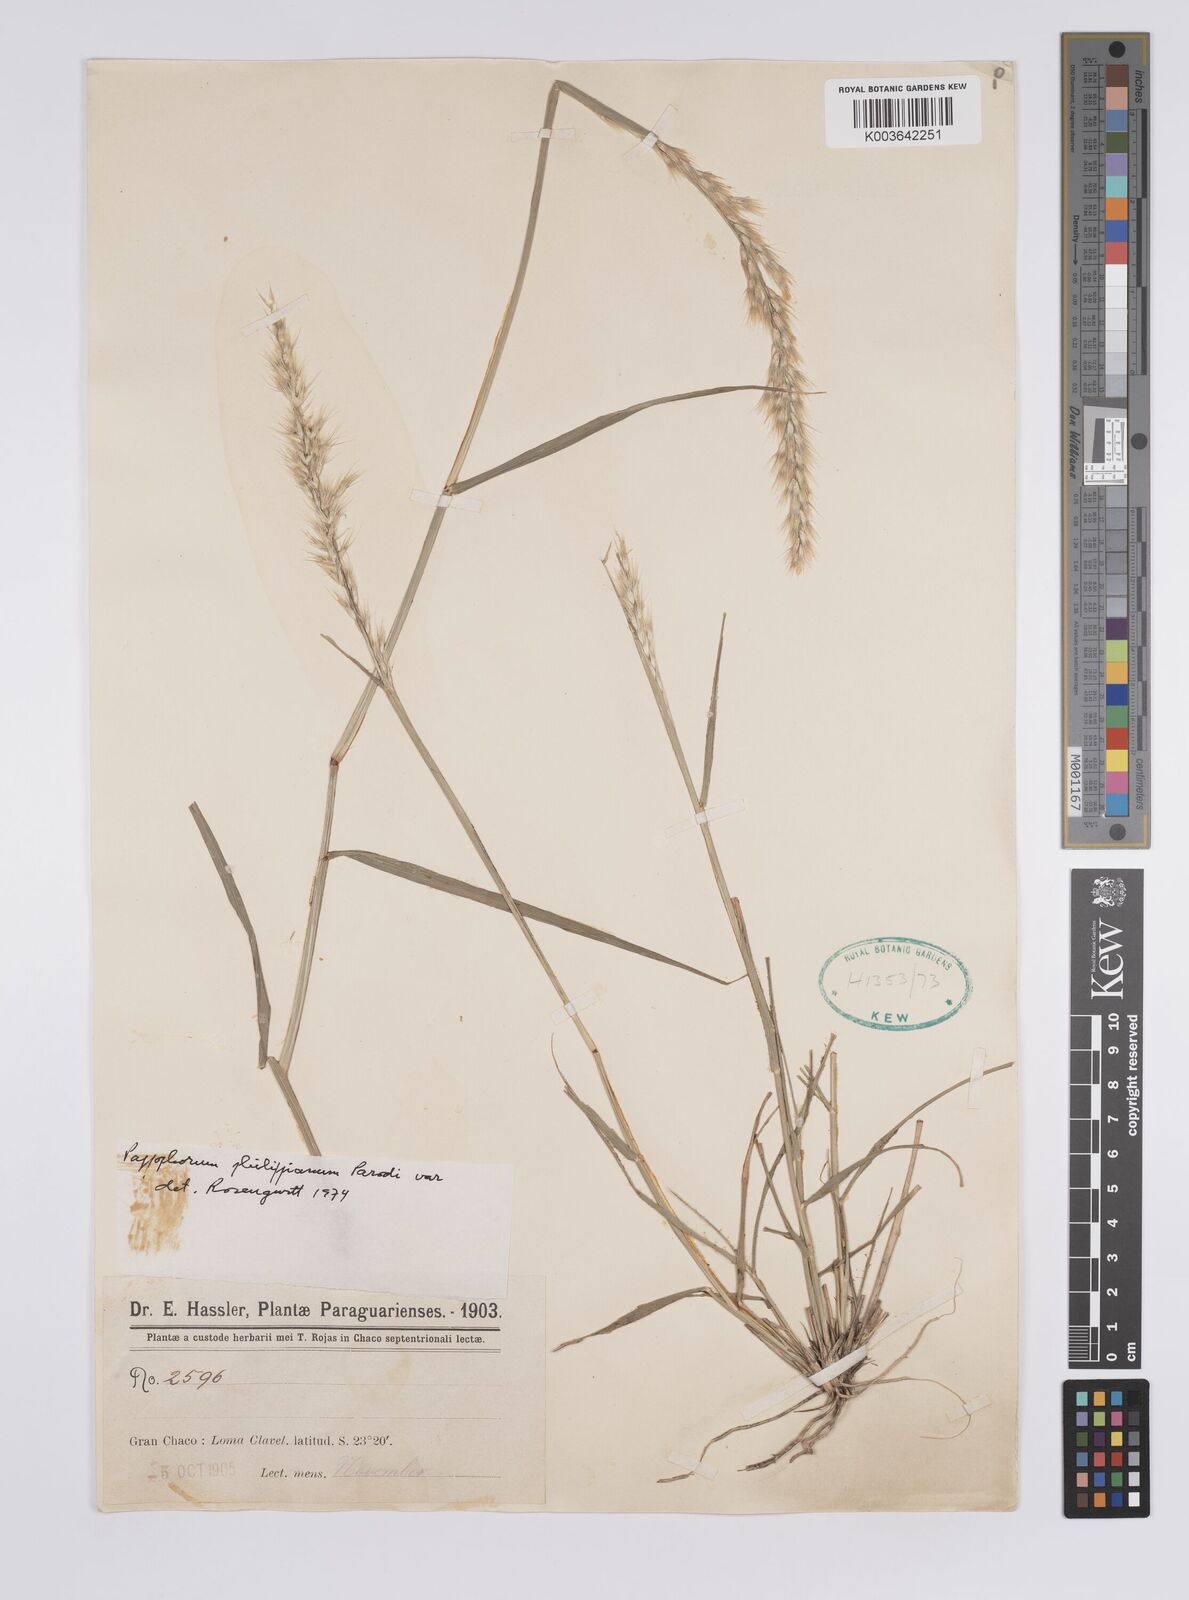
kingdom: Plantae
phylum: Tracheophyta
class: Liliopsida
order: Poales
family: Poaceae
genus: Pappophorum
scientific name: Pappophorum philippianum
